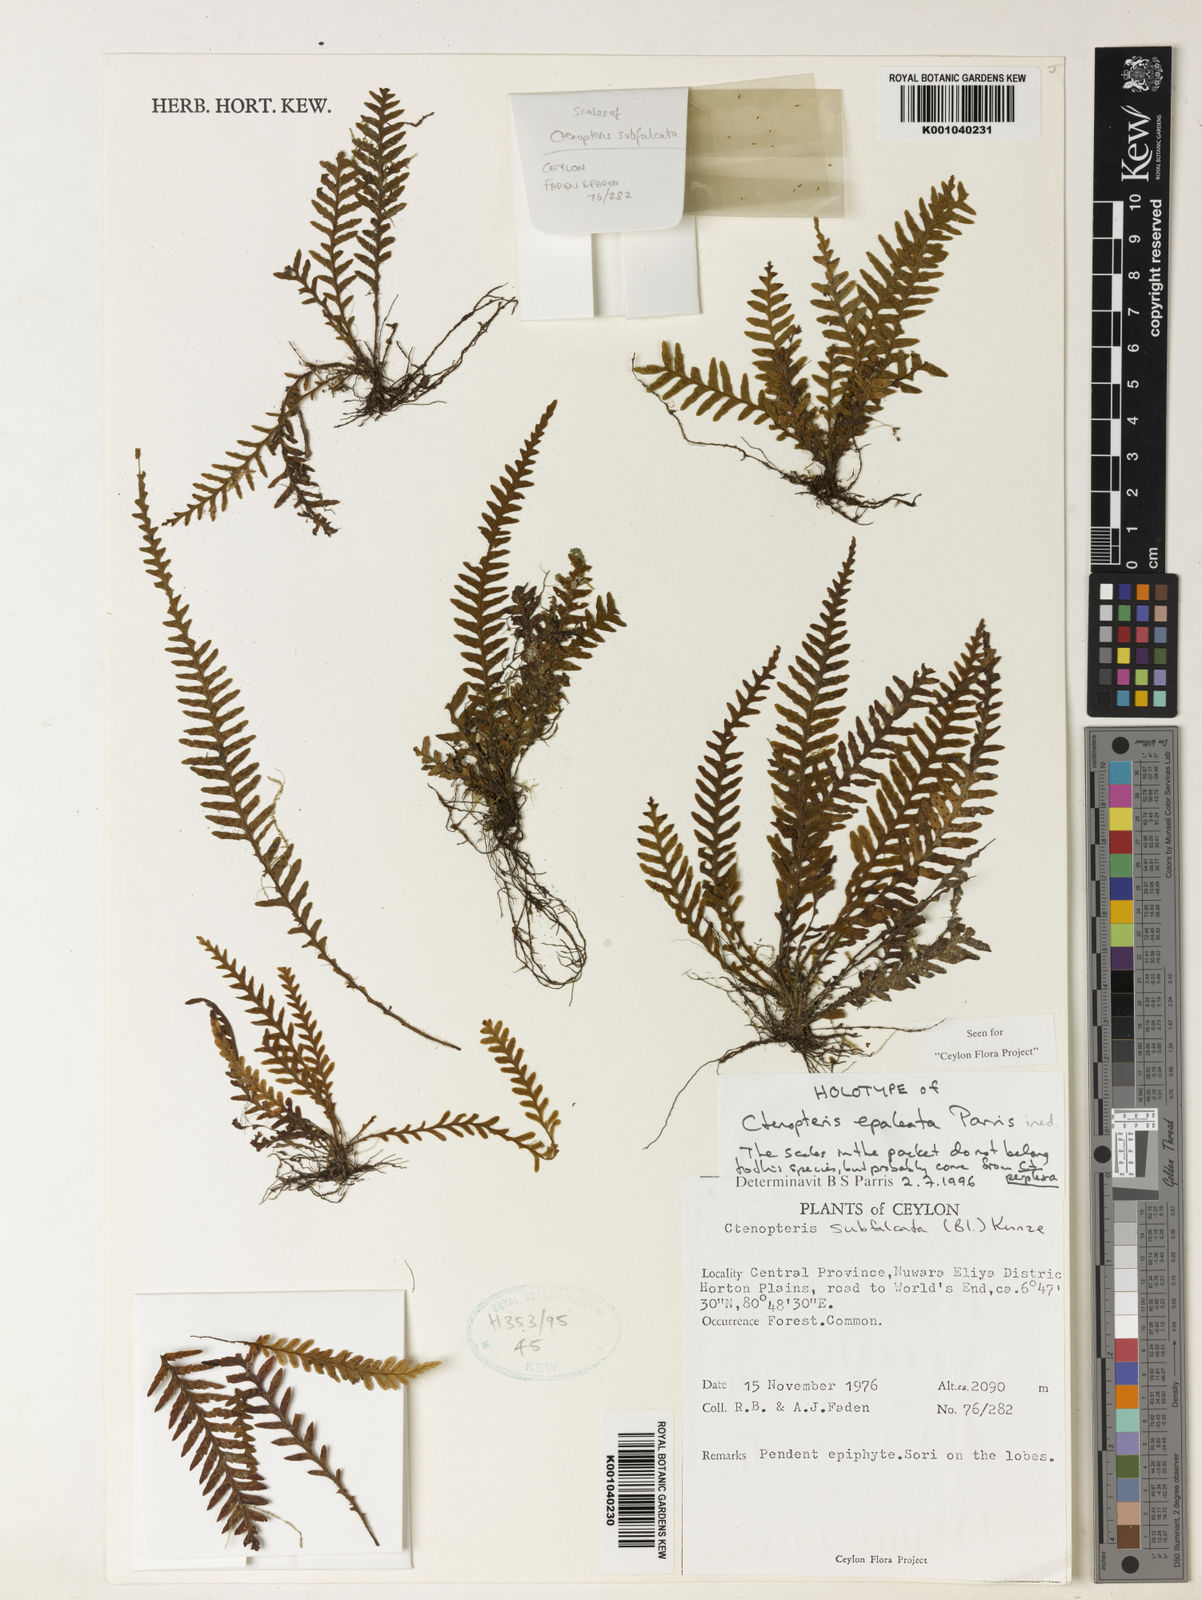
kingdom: Plantae
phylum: Tracheophyta
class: Polypodiopsida
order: Polypodiales
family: Polypodiaceae
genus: Tomophyllum
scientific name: Tomophyllum epaleatum
